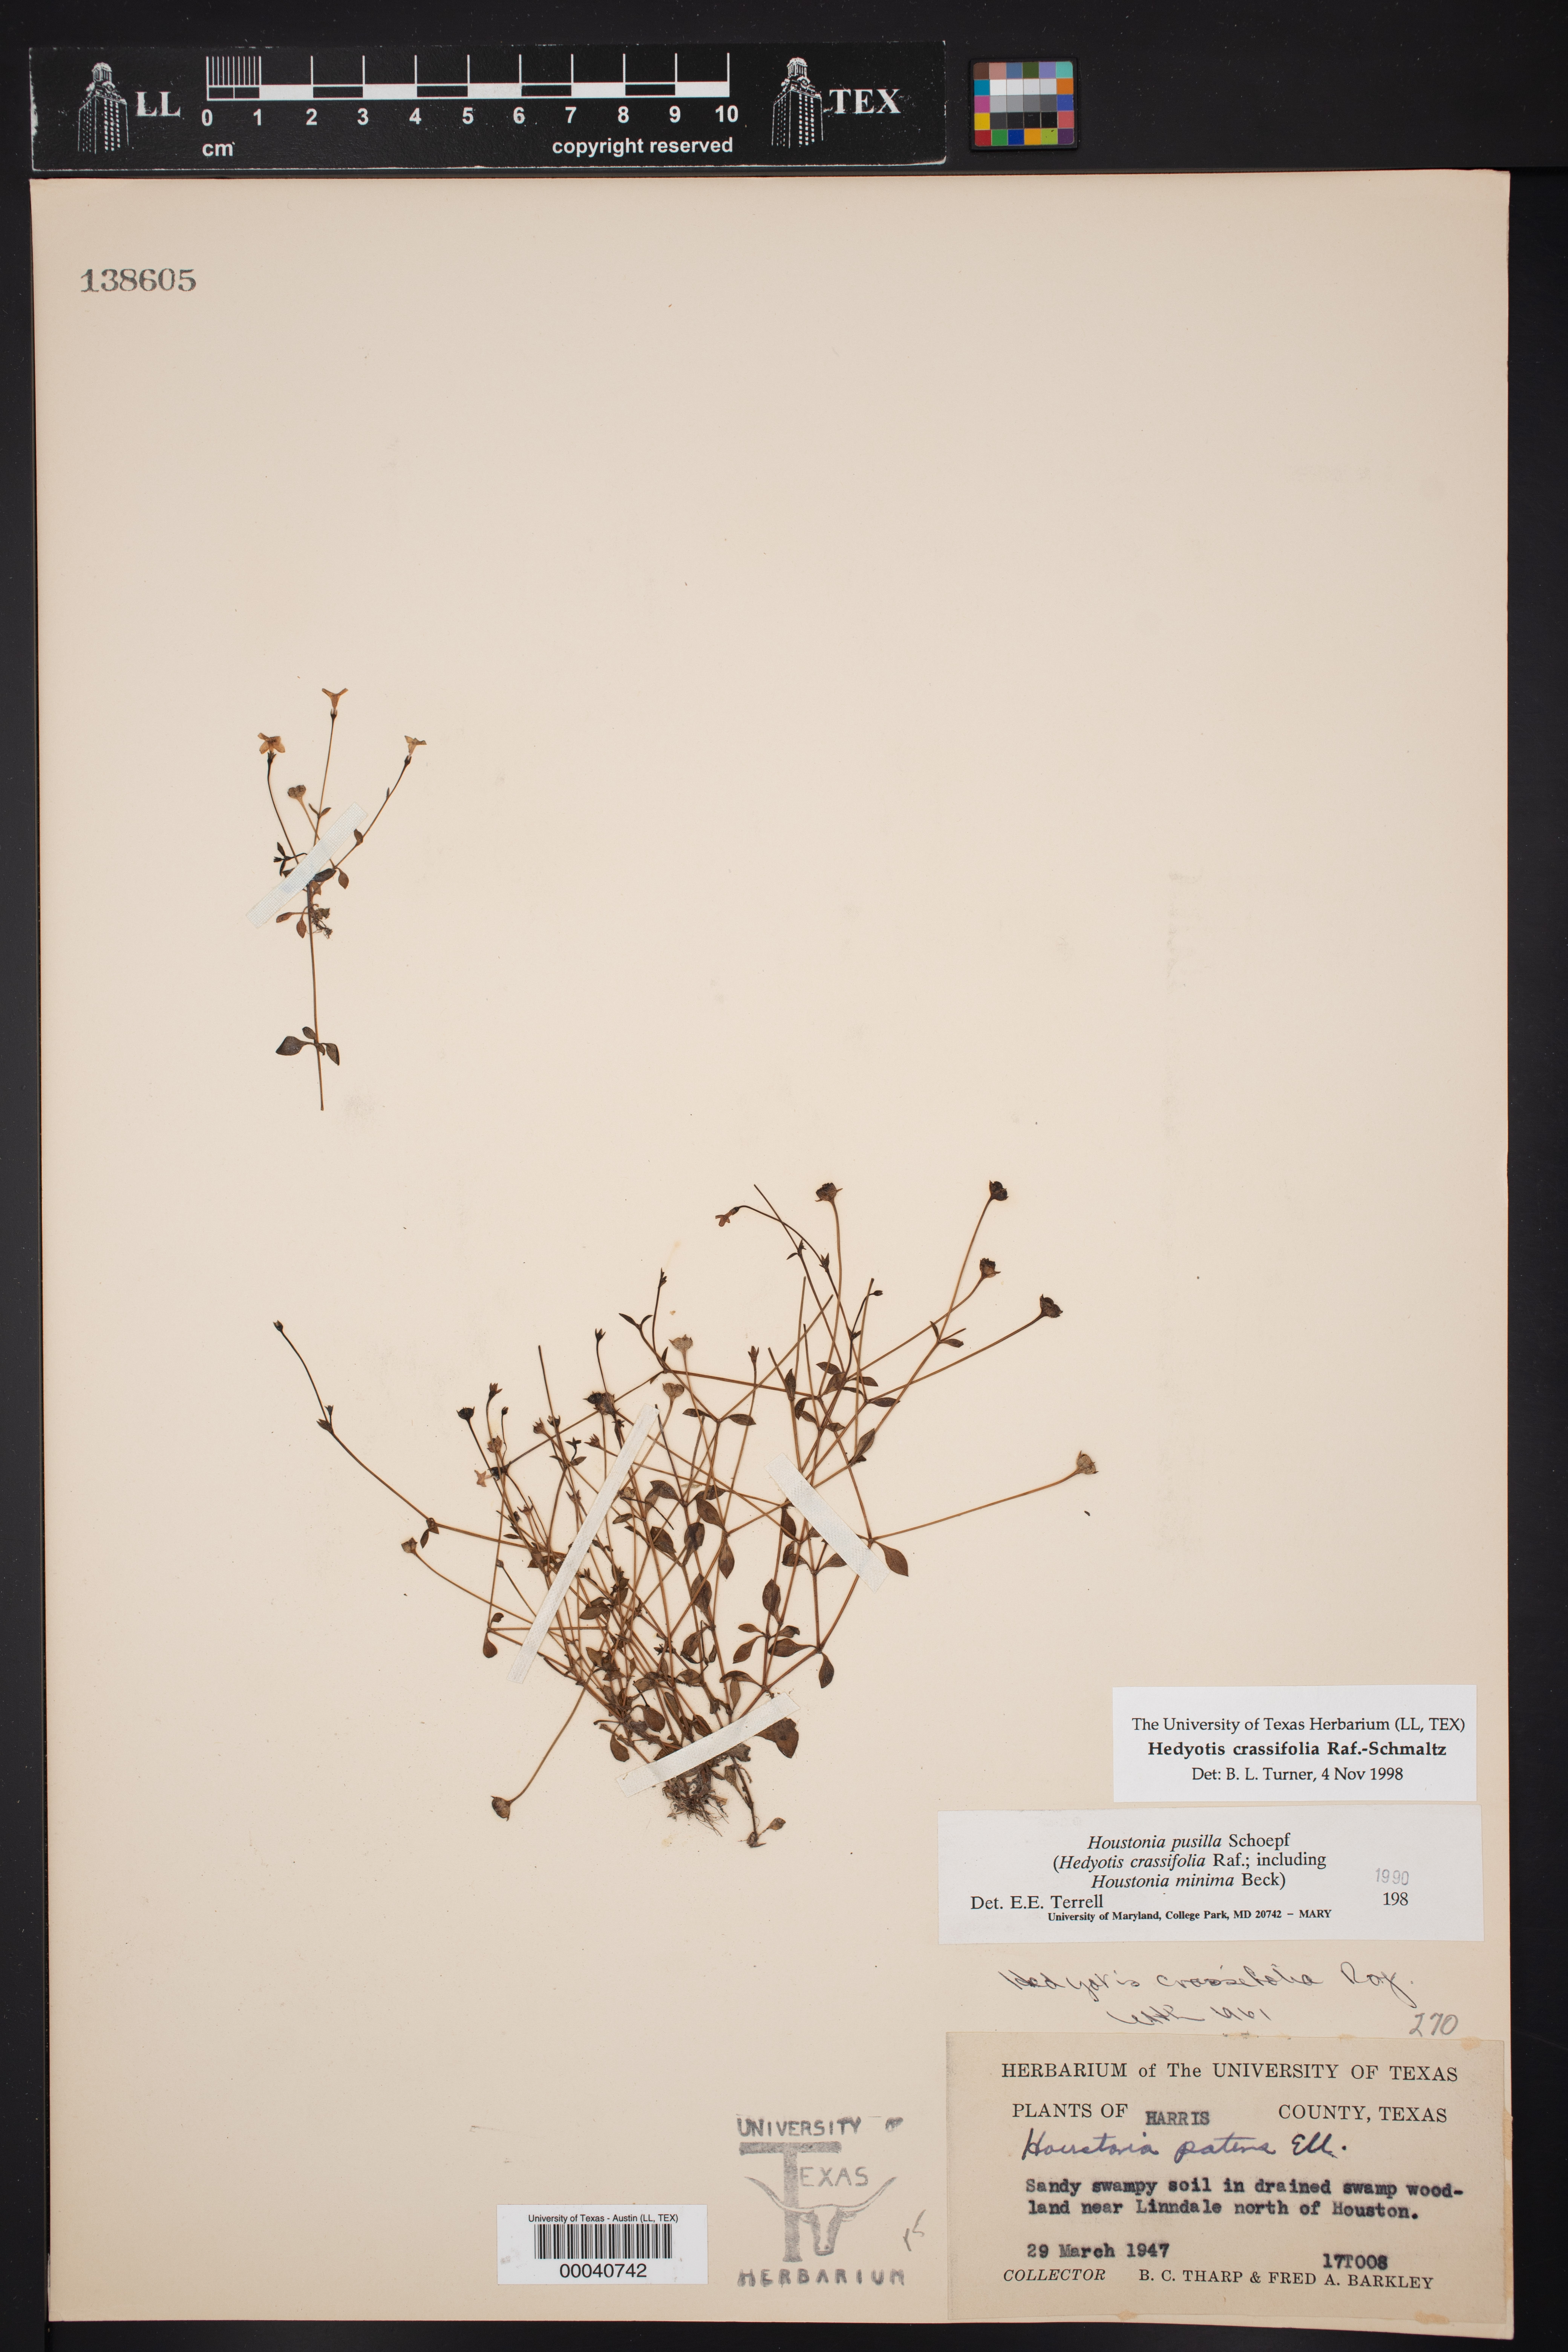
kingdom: Plantae
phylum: Tracheophyta
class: Magnoliopsida
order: Gentianales
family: Rubiaceae
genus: Hedyotis
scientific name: Hedyotis crassifolia
